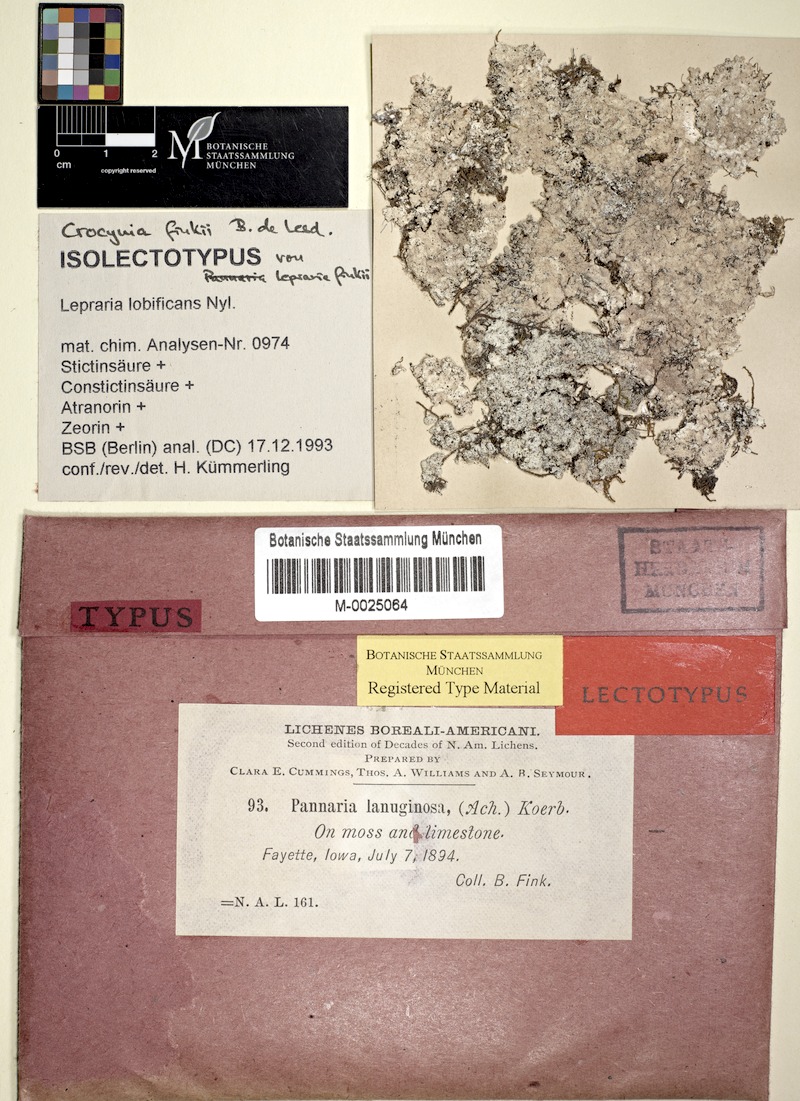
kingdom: Fungi
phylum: Ascomycota
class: Lecanoromycetes
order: Lecanorales
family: Stereocaulaceae
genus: Lepraria
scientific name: Lepraria lobificans
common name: Fluffy dust lichen
